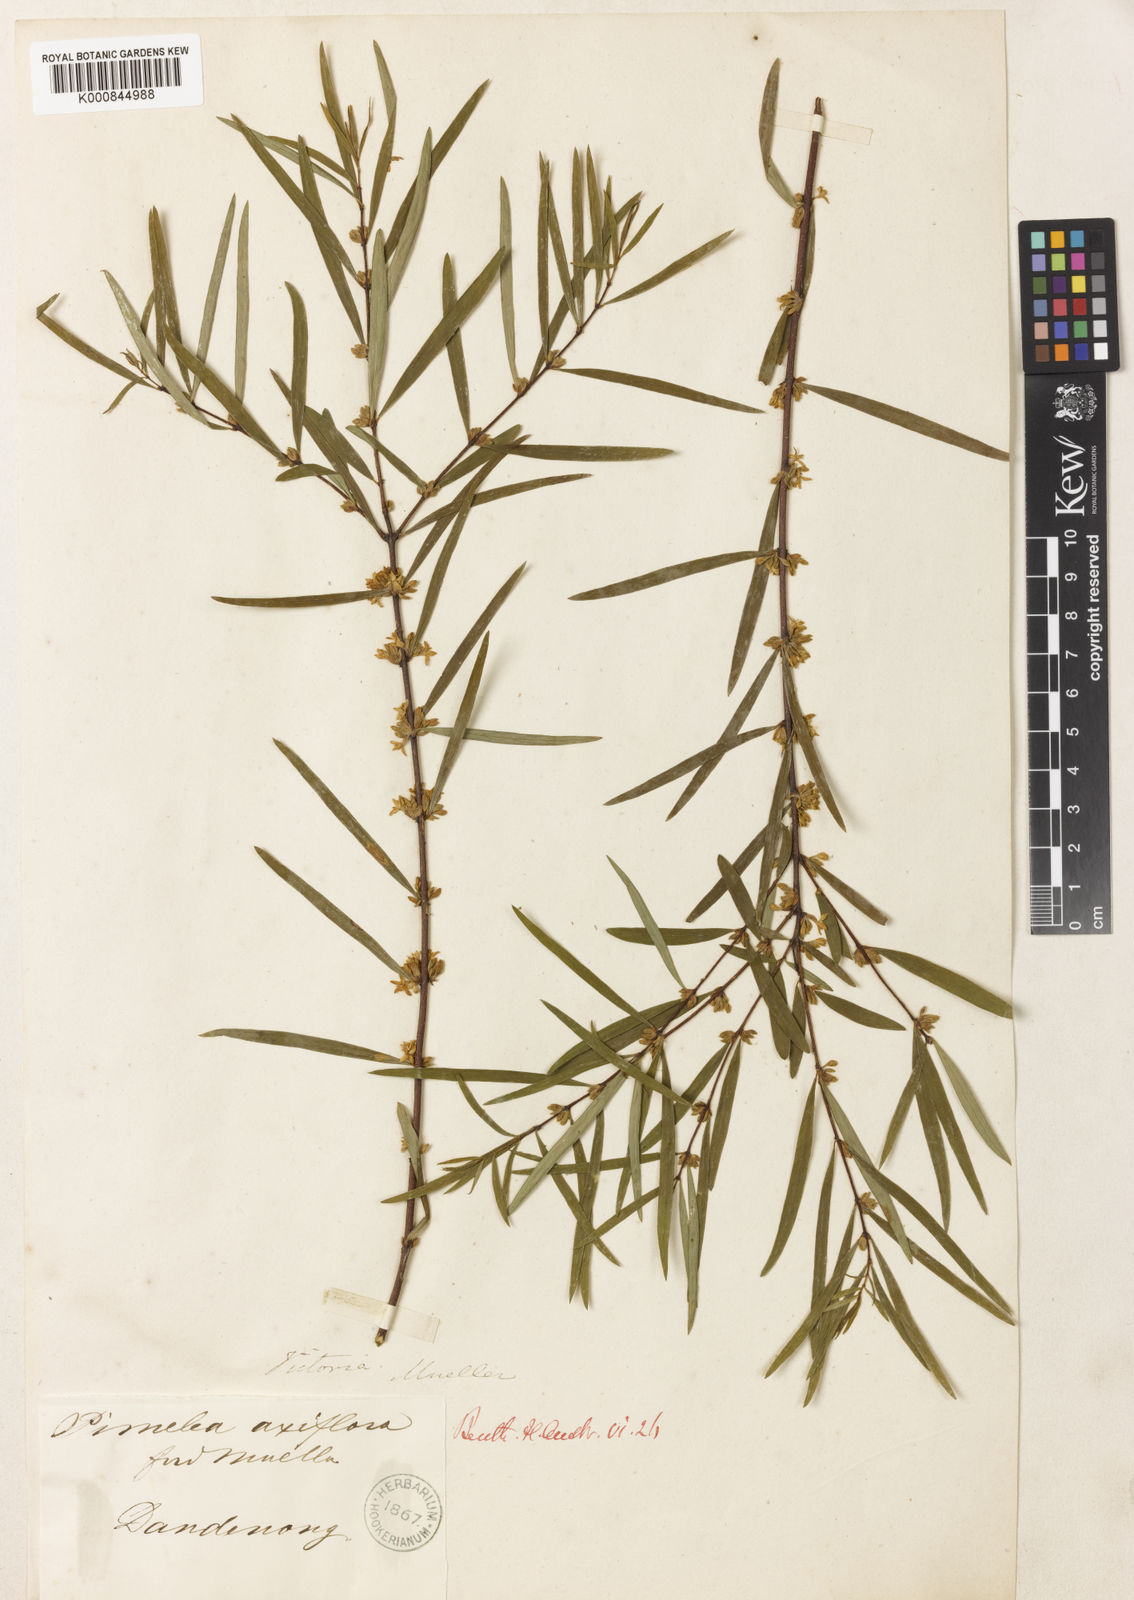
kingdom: Plantae
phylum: Tracheophyta
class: Magnoliopsida
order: Malvales
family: Thymelaeaceae
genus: Pimelea
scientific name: Pimelea
